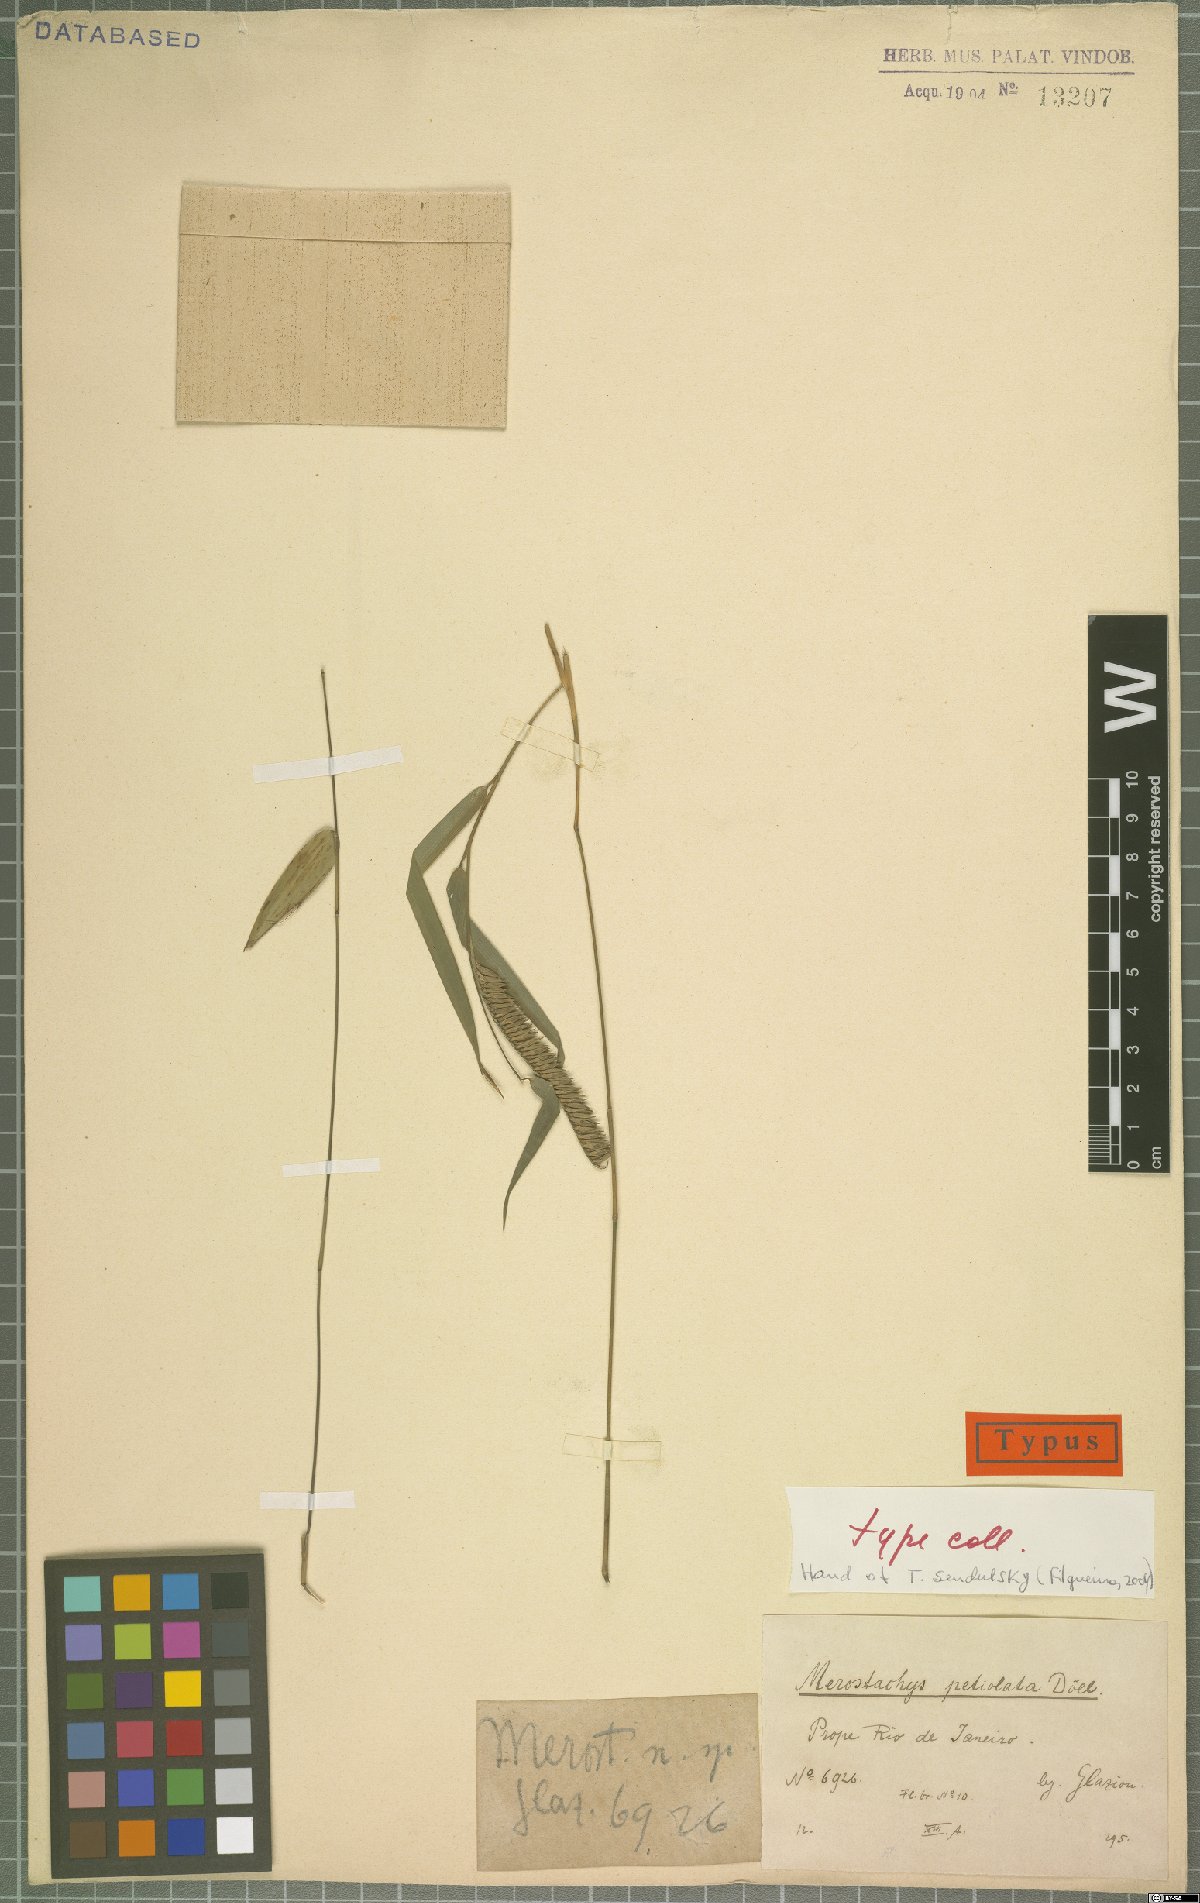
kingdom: Plantae
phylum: Tracheophyta
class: Liliopsida
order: Poales
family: Poaceae
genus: Merostachys
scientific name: Merostachys petiolata
